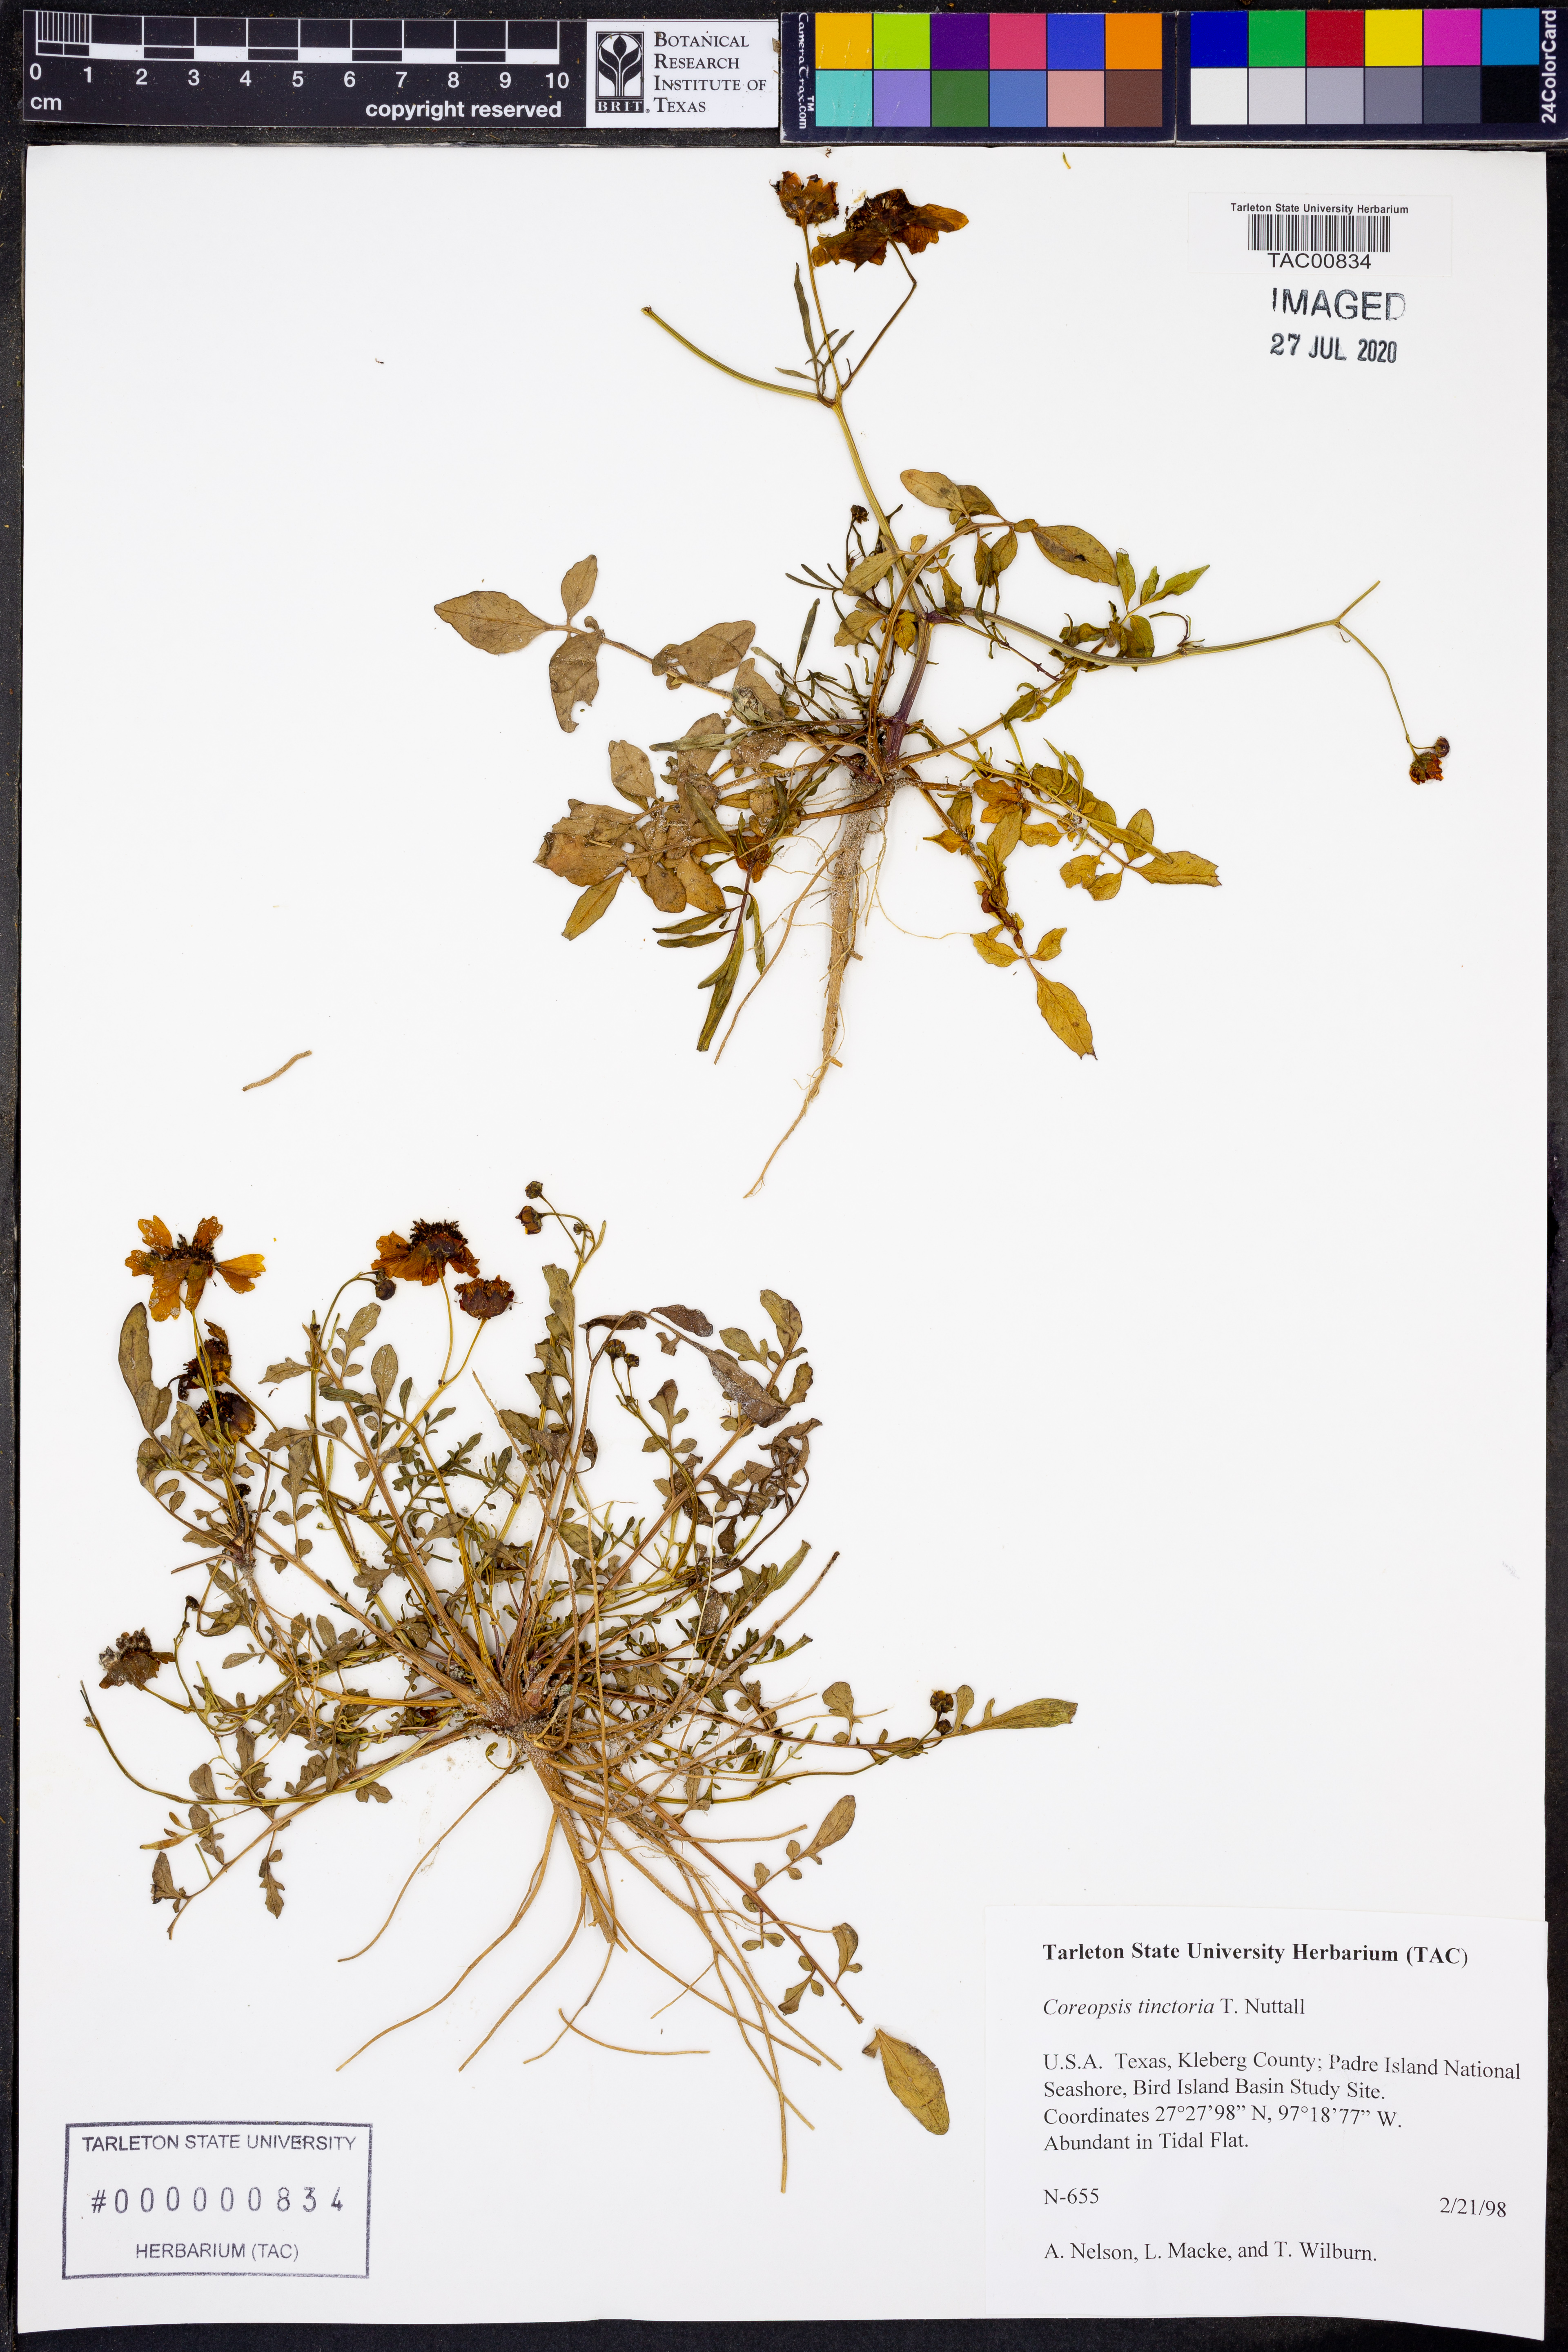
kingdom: Plantae
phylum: Tracheophyta
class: Magnoliopsida
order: Asterales
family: Asteraceae
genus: Coreopsis
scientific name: Coreopsis tinctoria
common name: Garden tickseed
